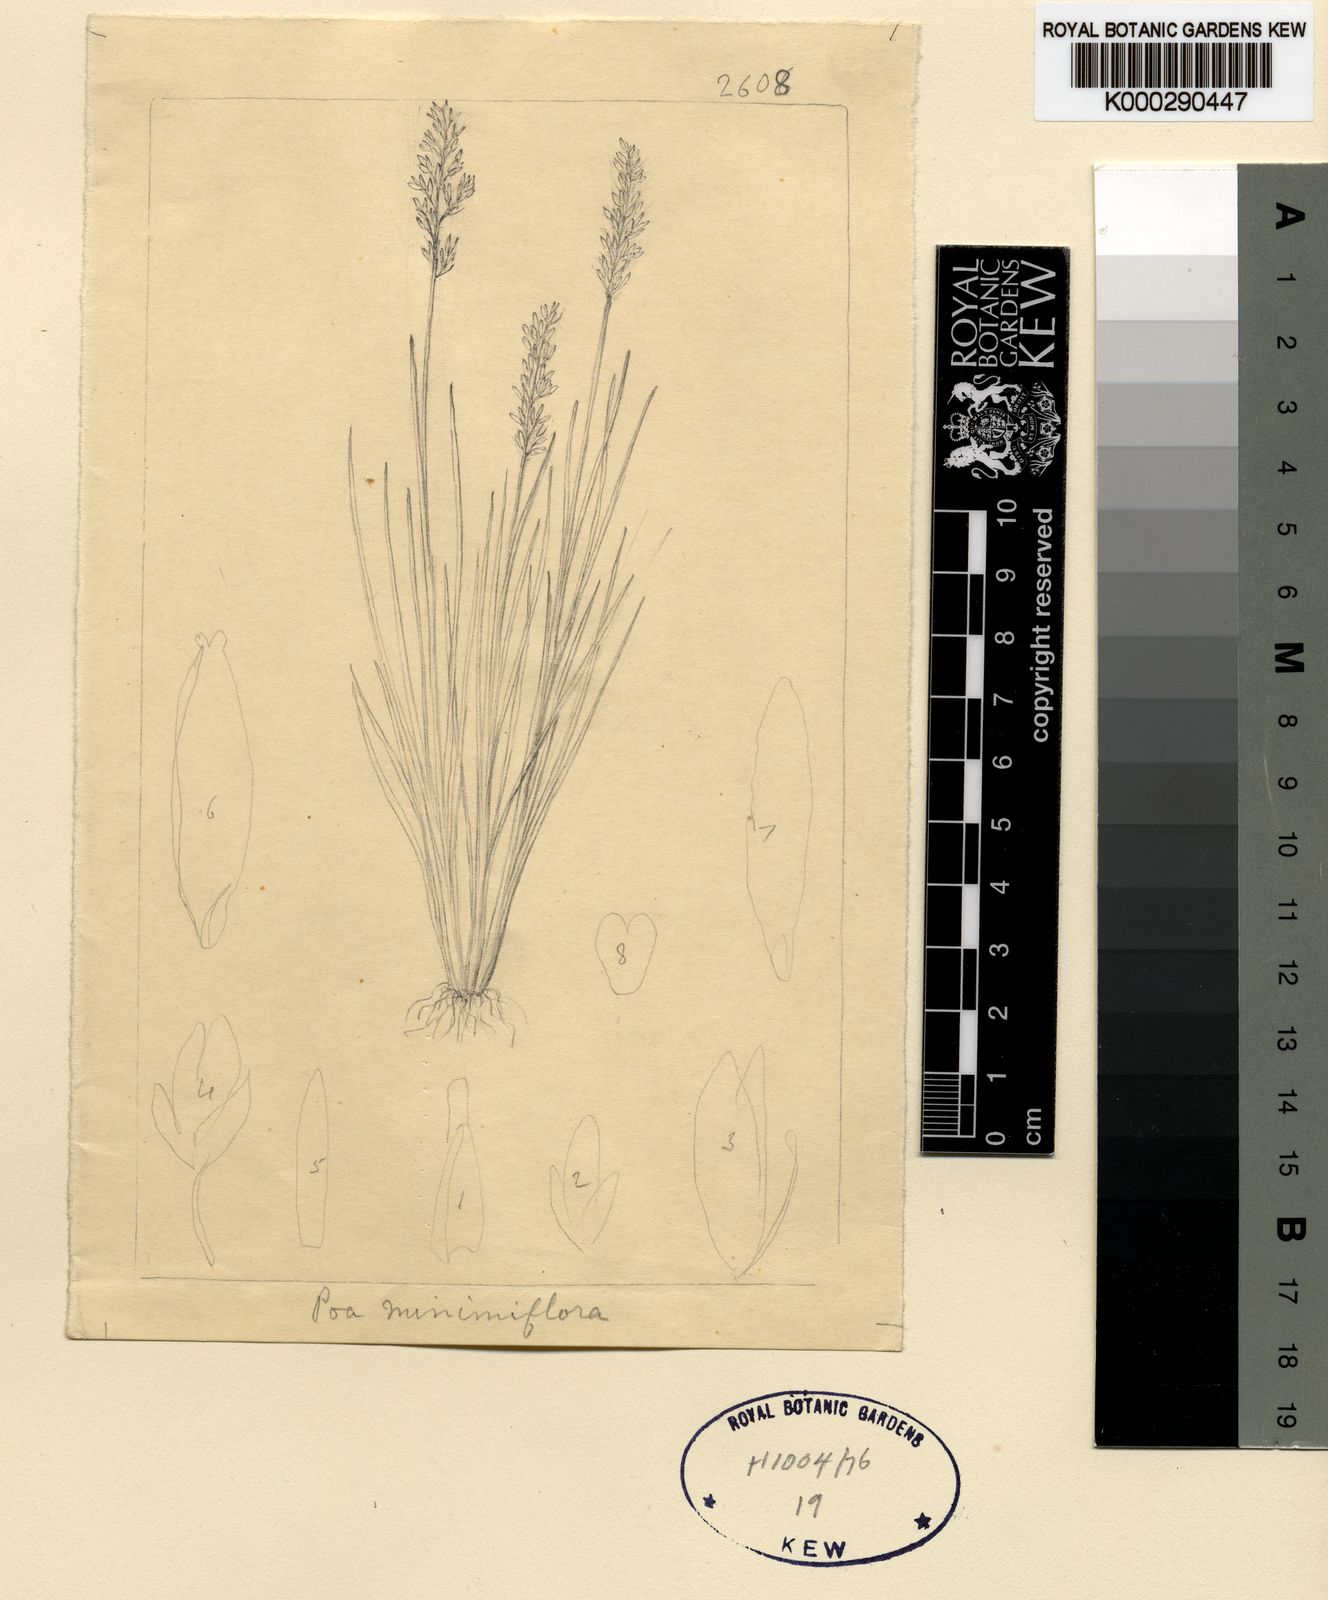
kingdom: Plantae
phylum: Tracheophyta
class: Liliopsida
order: Poales
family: Poaceae
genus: Poa
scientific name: Poa minimiflora
